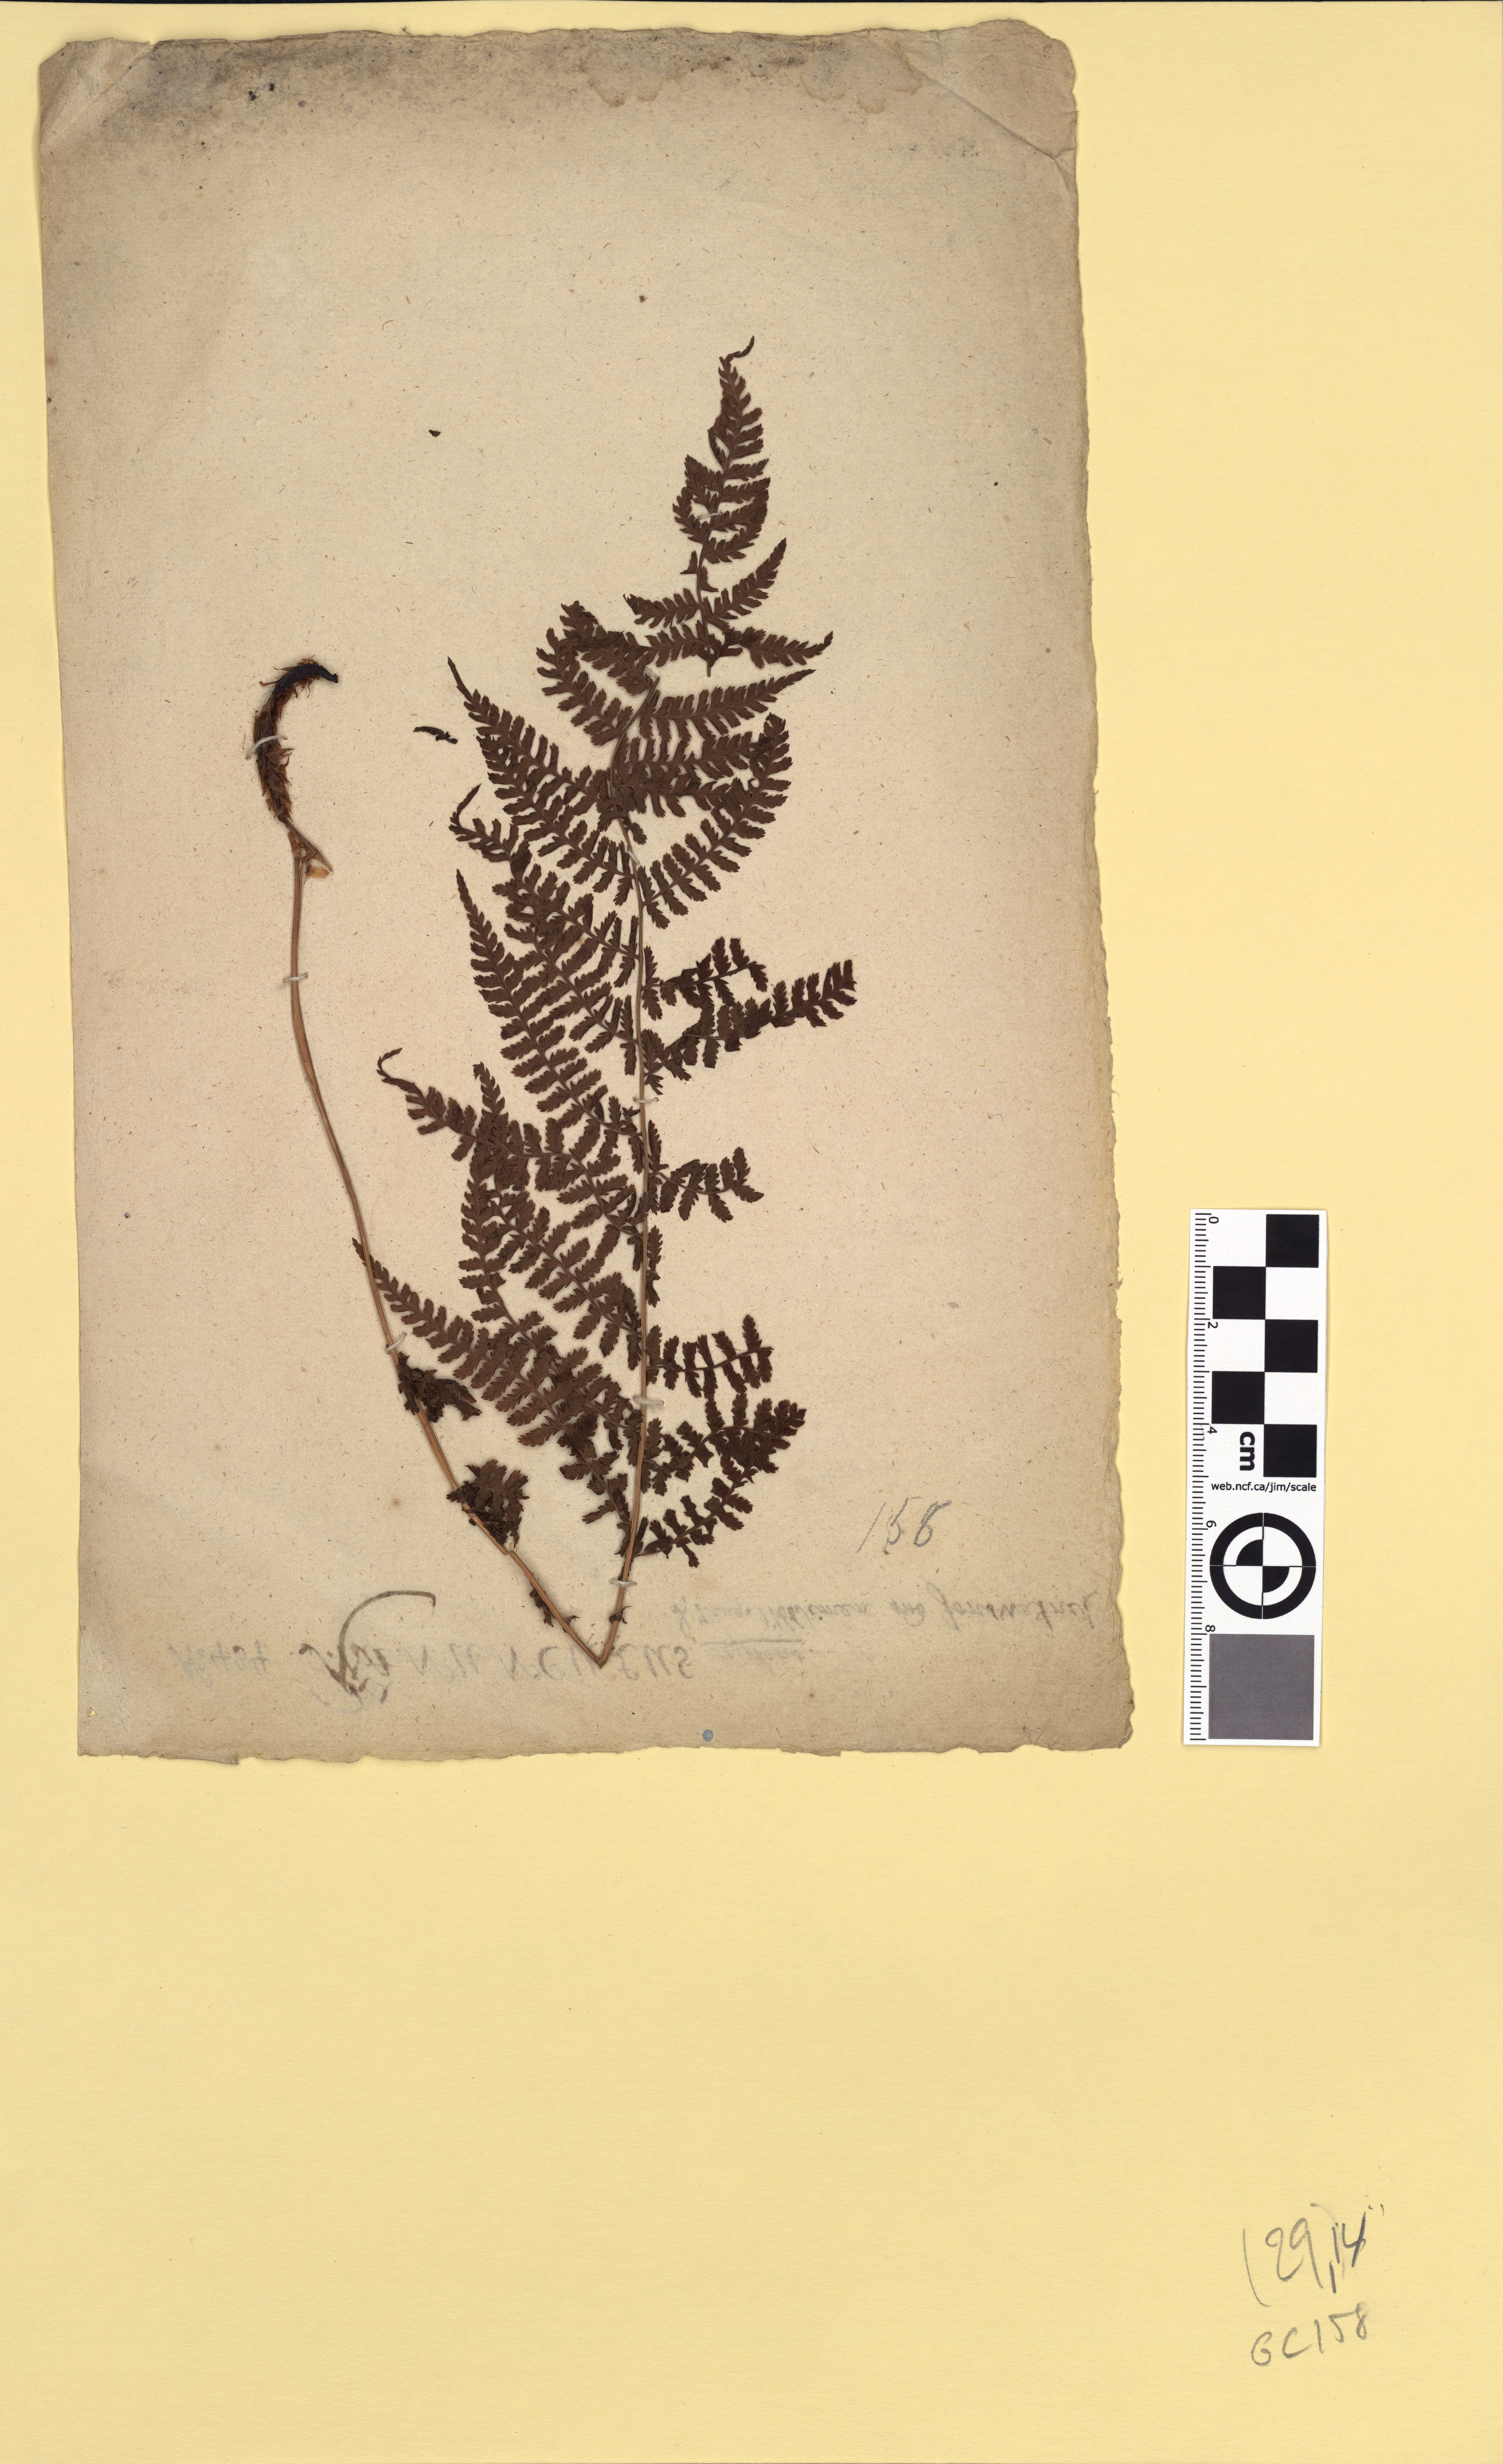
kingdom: Plantae
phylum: Tracheophyta
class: Polypodiopsida
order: Polypodiales
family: Athyriaceae
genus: Athyrium
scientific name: Athyrium filix-femina
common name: Lady fern
